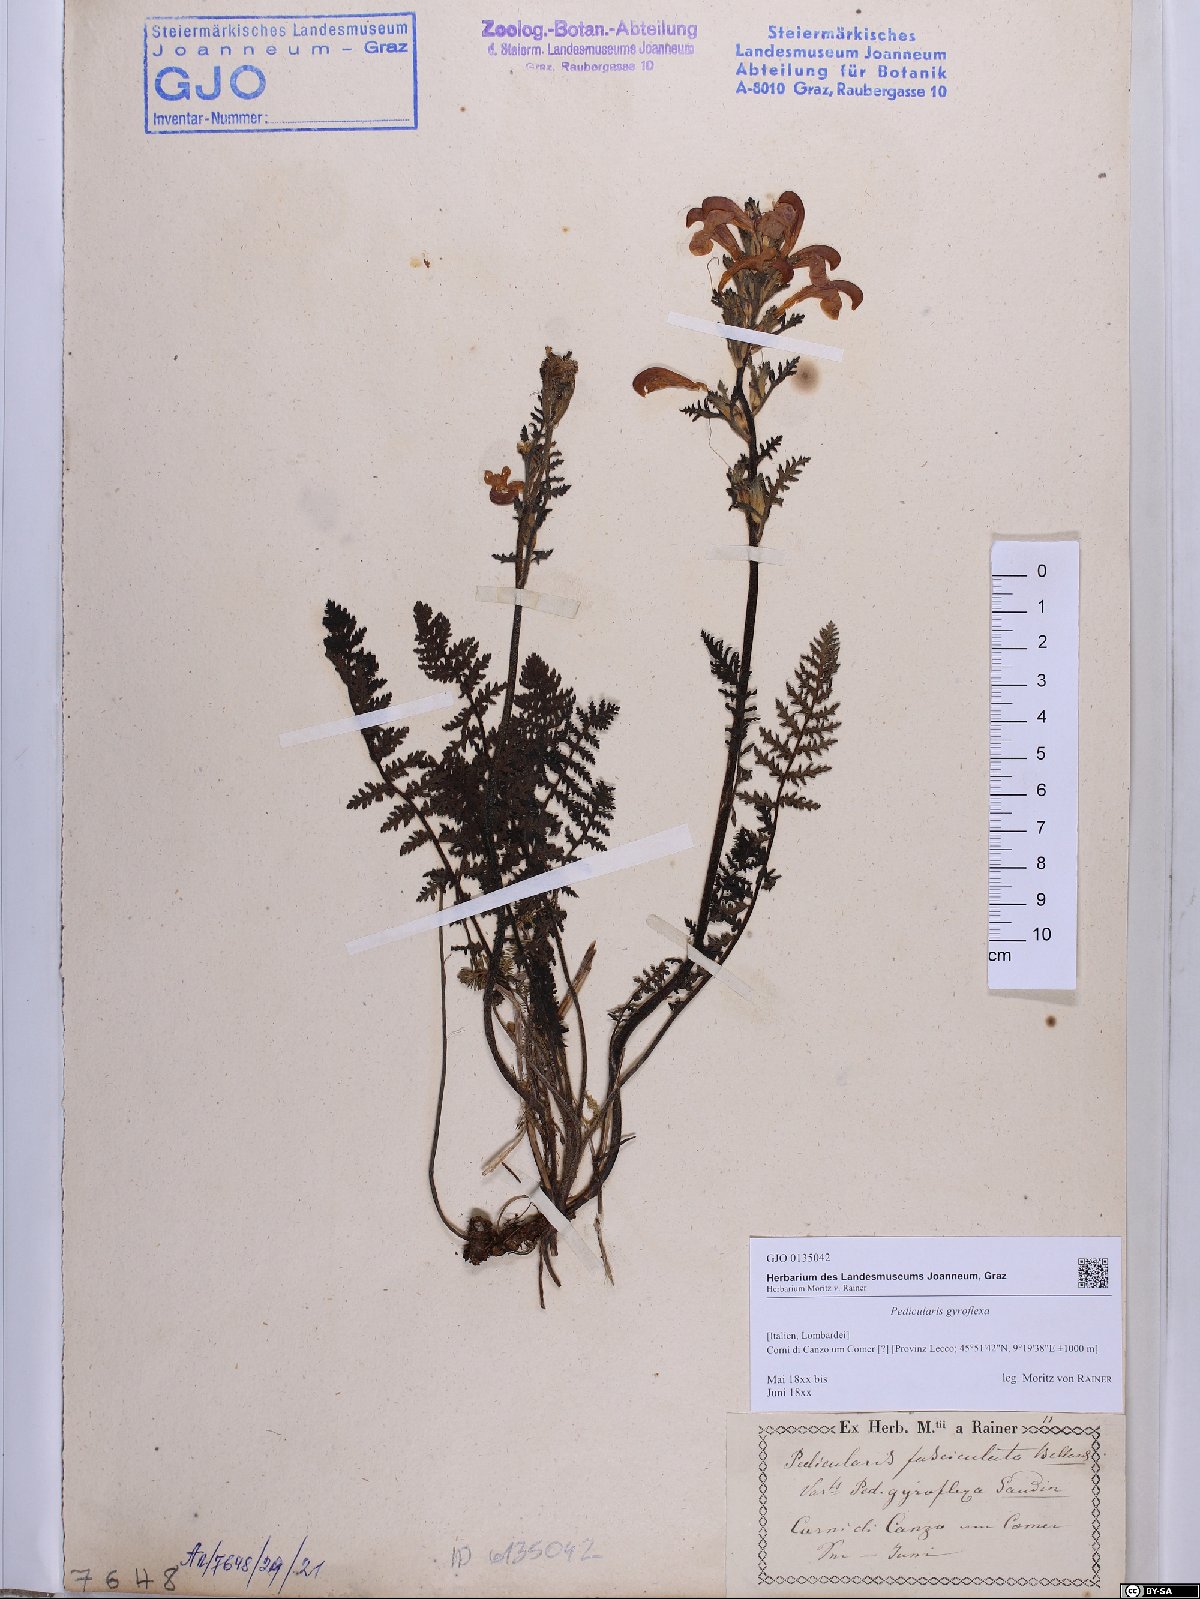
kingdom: Plantae
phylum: Tracheophyta
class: Magnoliopsida
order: Lamiales
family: Orobanchaceae
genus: Pedicularis
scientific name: Pedicularis gyroflexa
